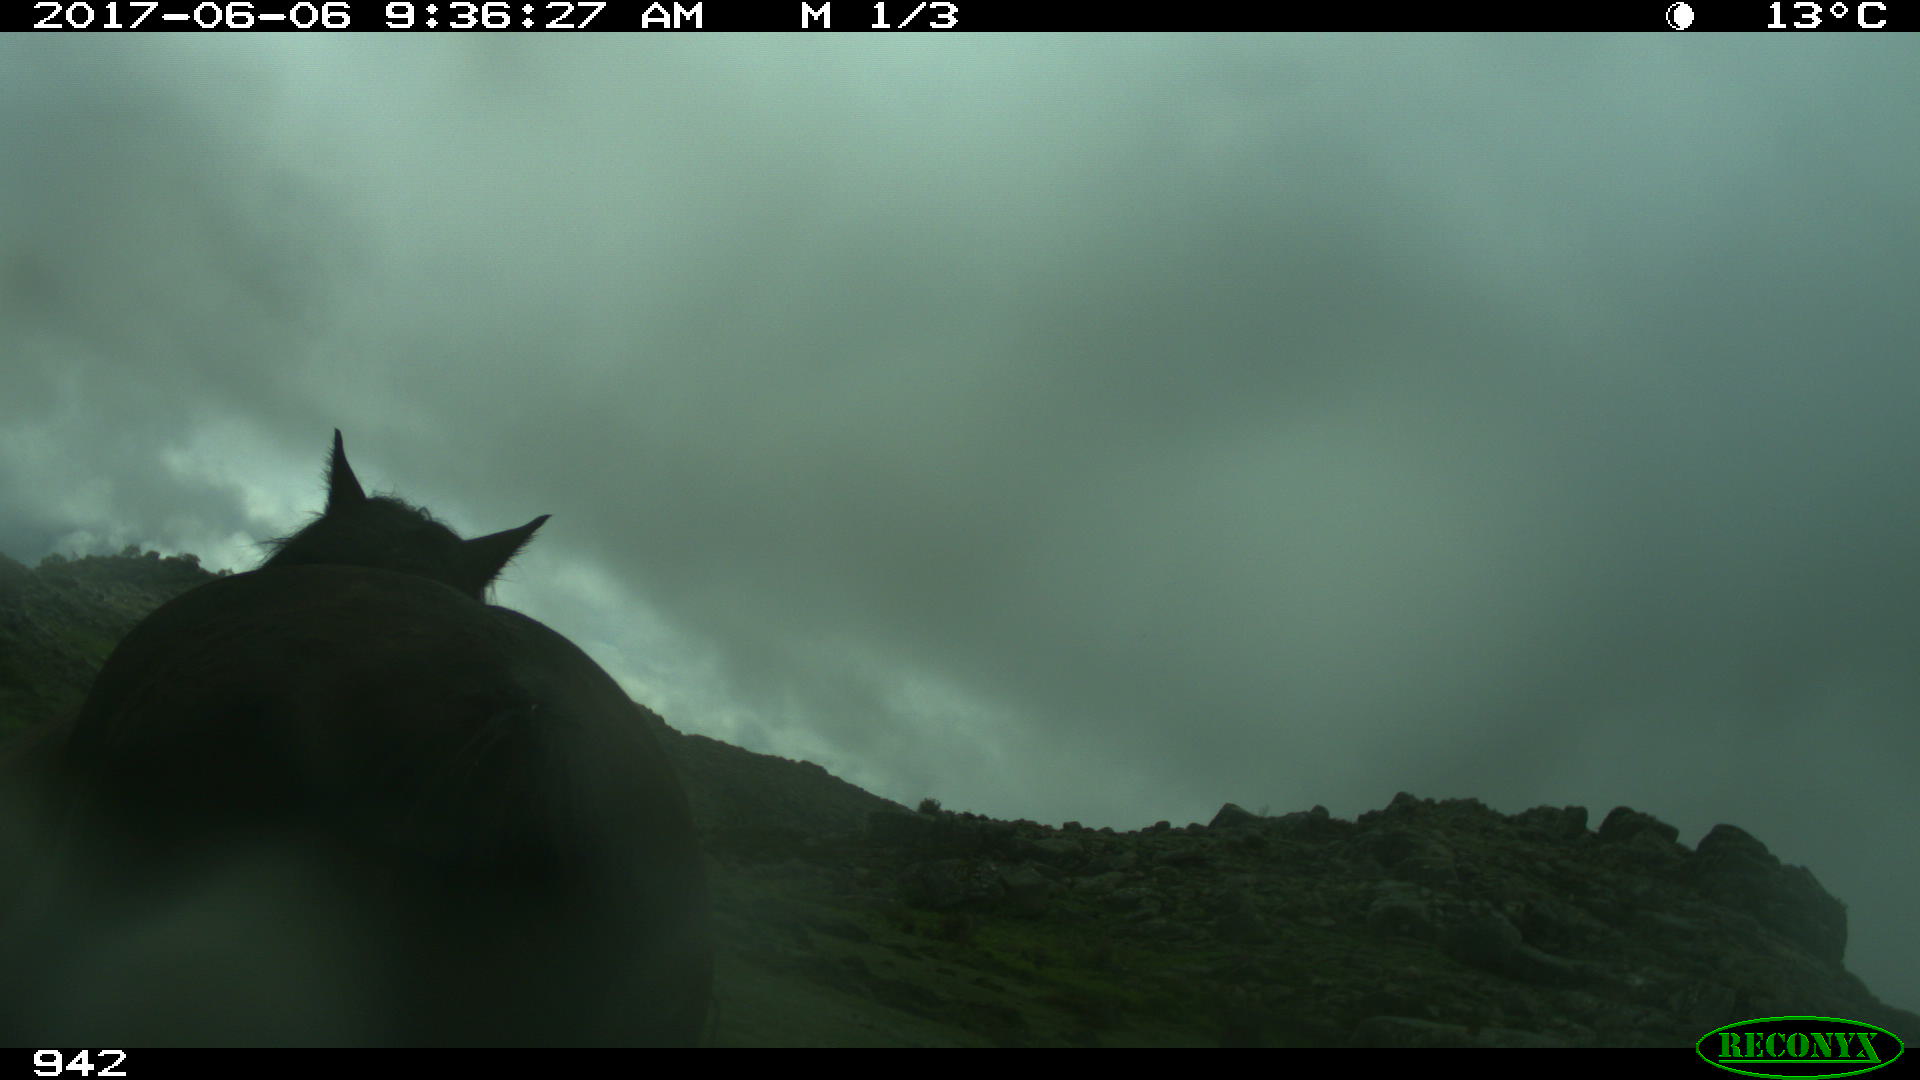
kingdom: Animalia
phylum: Chordata
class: Mammalia
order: Perissodactyla
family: Equidae
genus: Equus
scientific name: Equus caballus
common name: Horse
